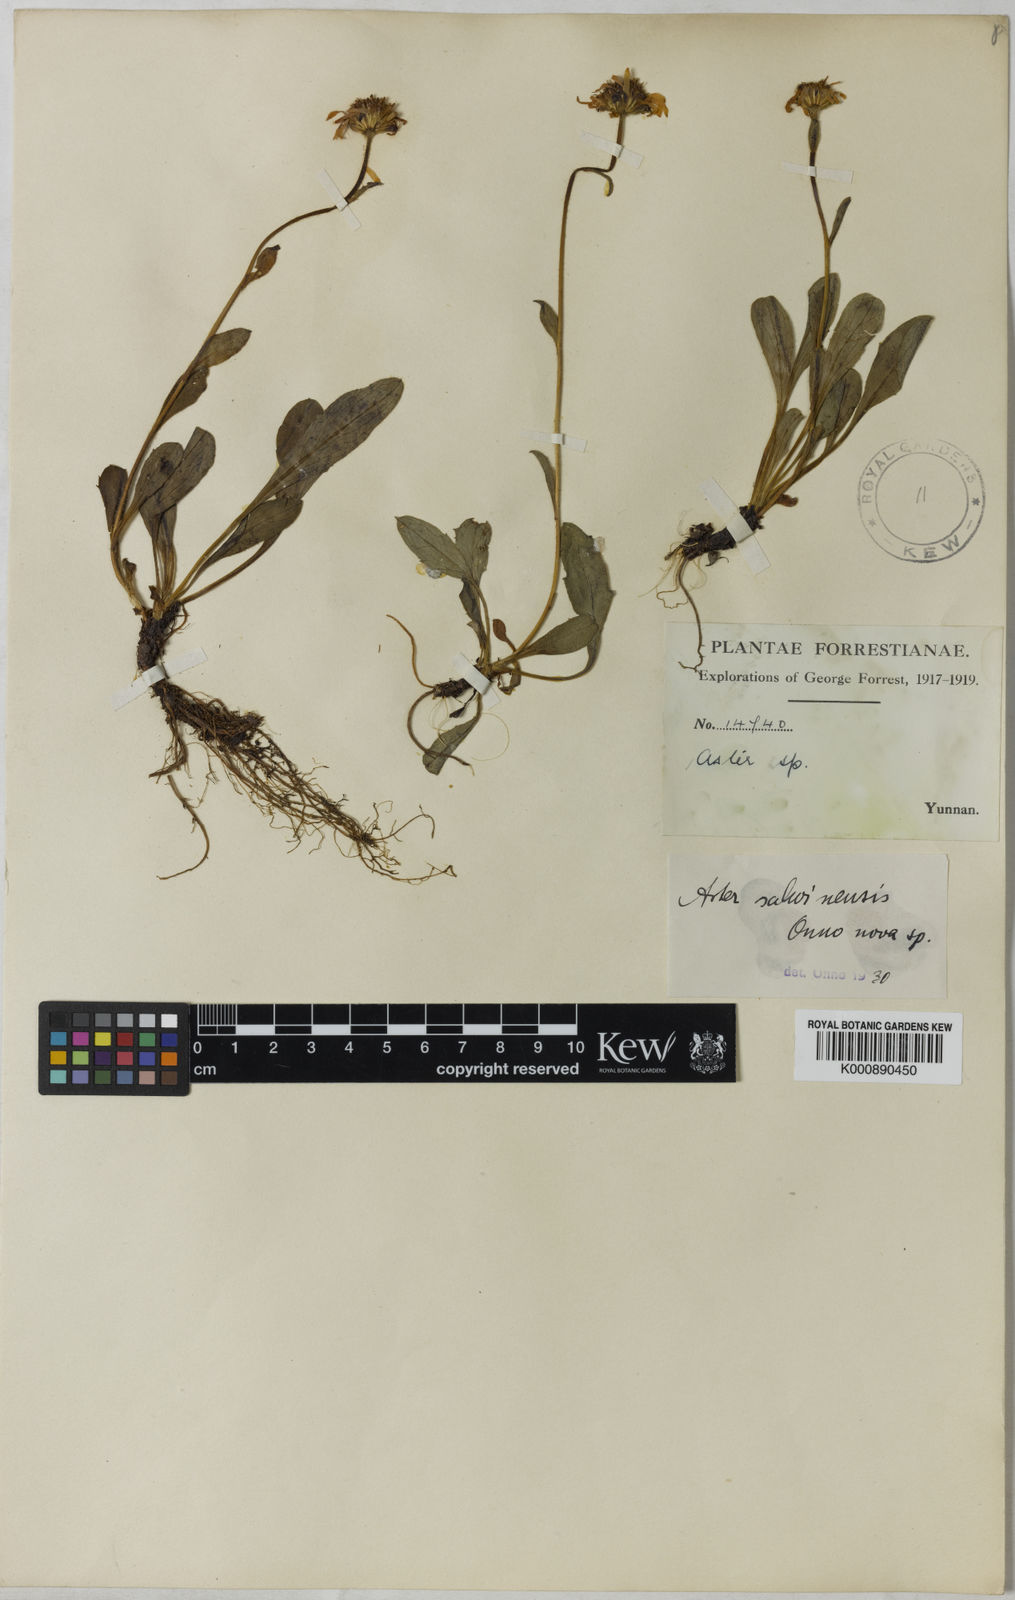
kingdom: Plantae
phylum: Tracheophyta
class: Magnoliopsida
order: Asterales
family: Asteraceae
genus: Tibetiodes
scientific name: Tibetiodes salwinensis
